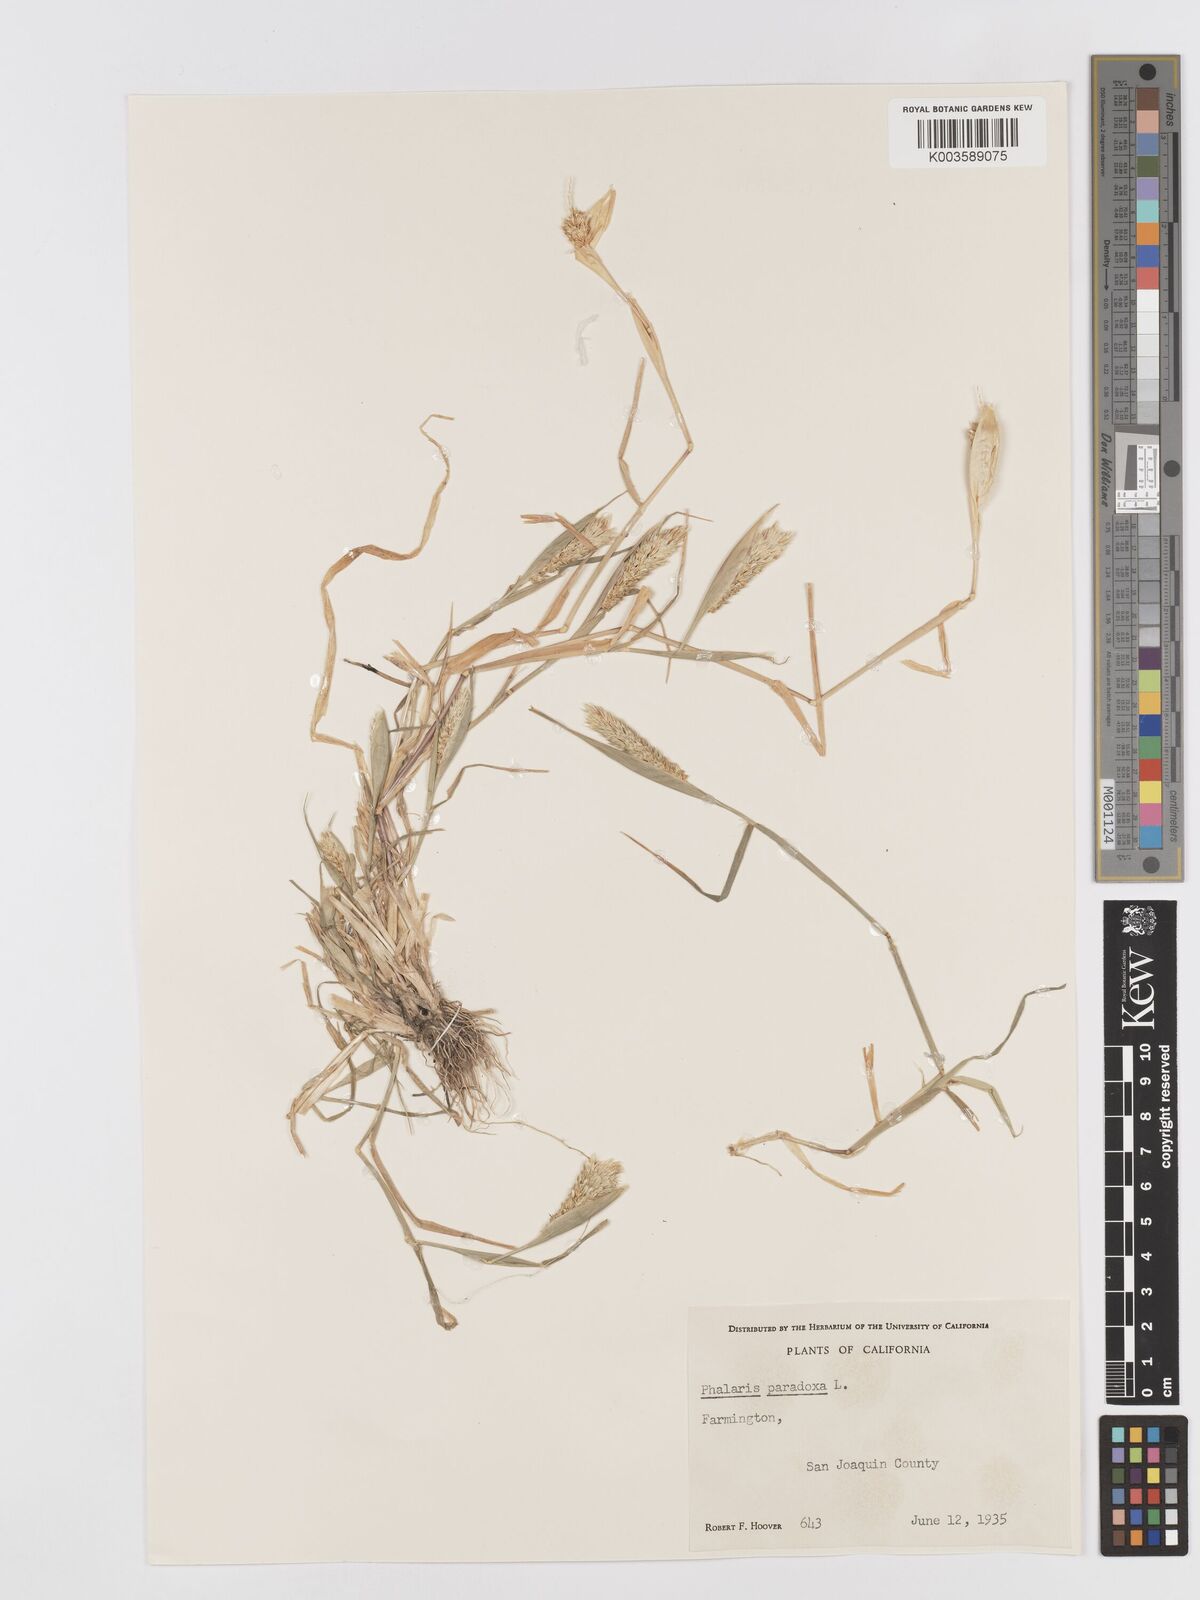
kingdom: Plantae
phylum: Tracheophyta
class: Liliopsida
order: Poales
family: Poaceae
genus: Phalaris
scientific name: Phalaris paradoxa
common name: Awned canary-grass
